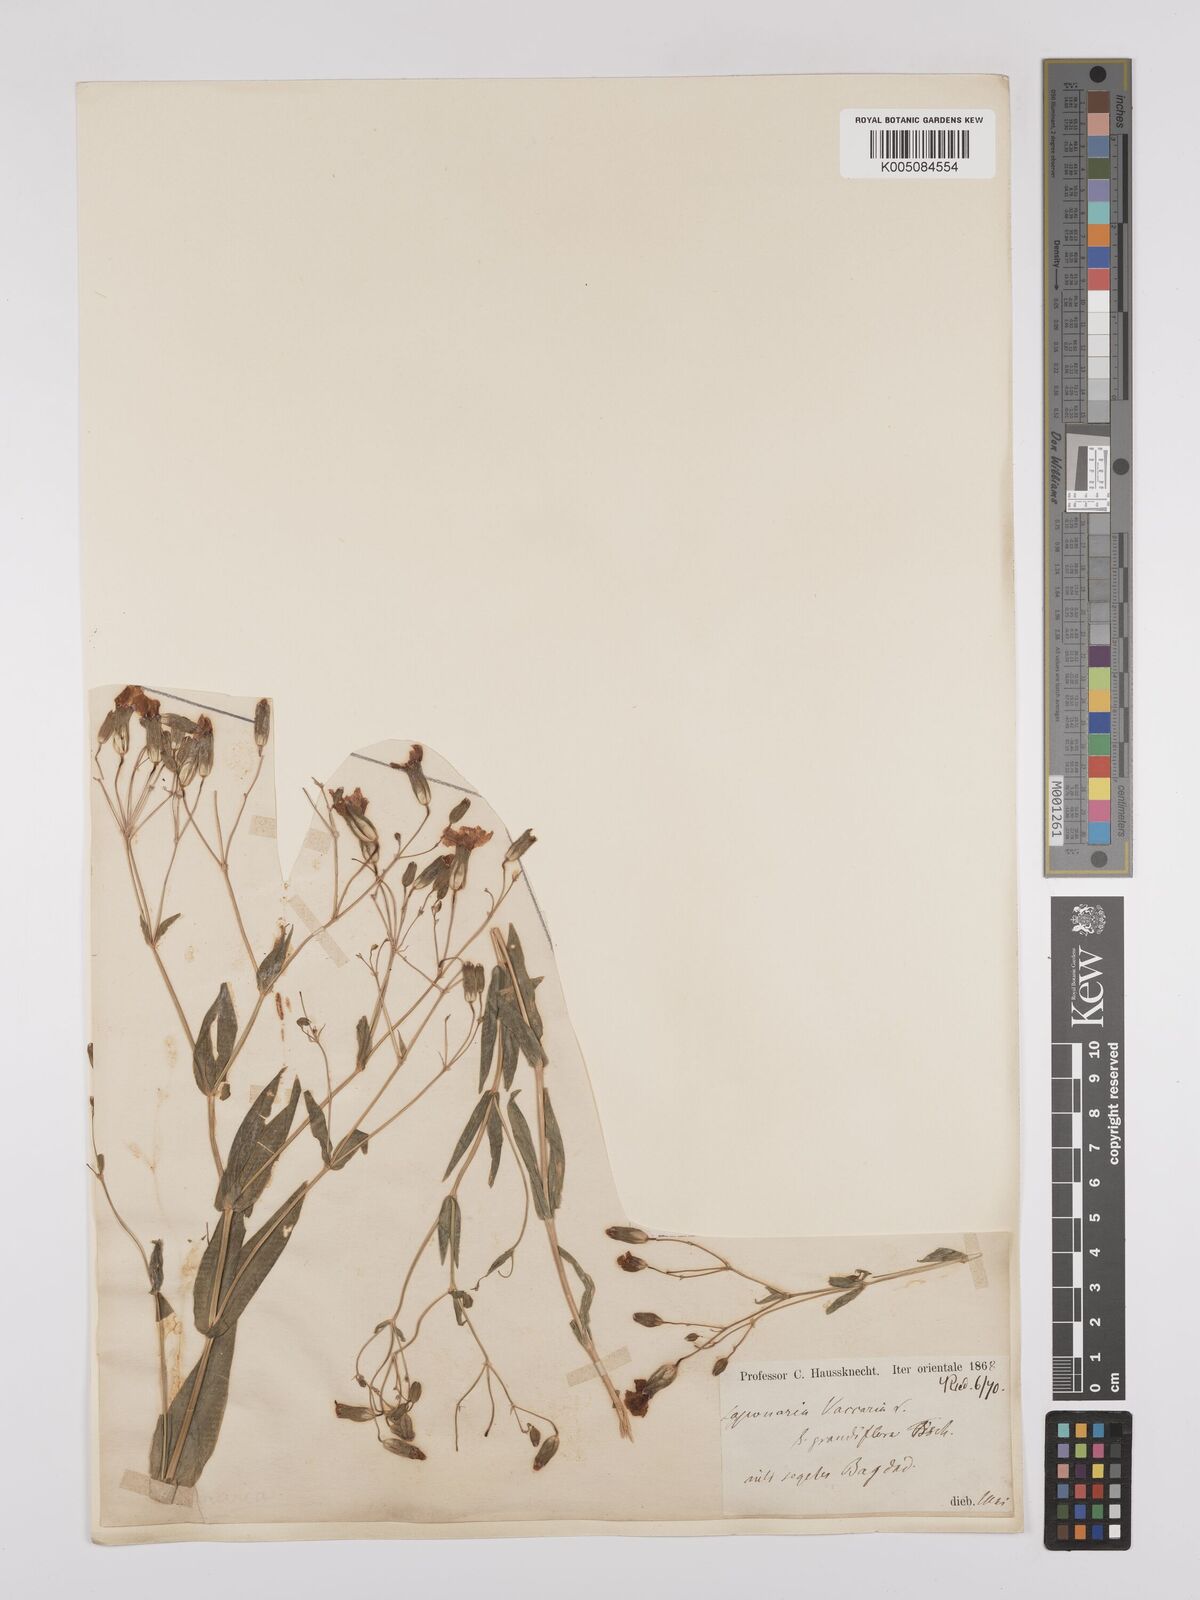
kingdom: Plantae
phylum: Tracheophyta
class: Magnoliopsida
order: Caryophyllales
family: Caryophyllaceae
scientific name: Caryophyllaceae
